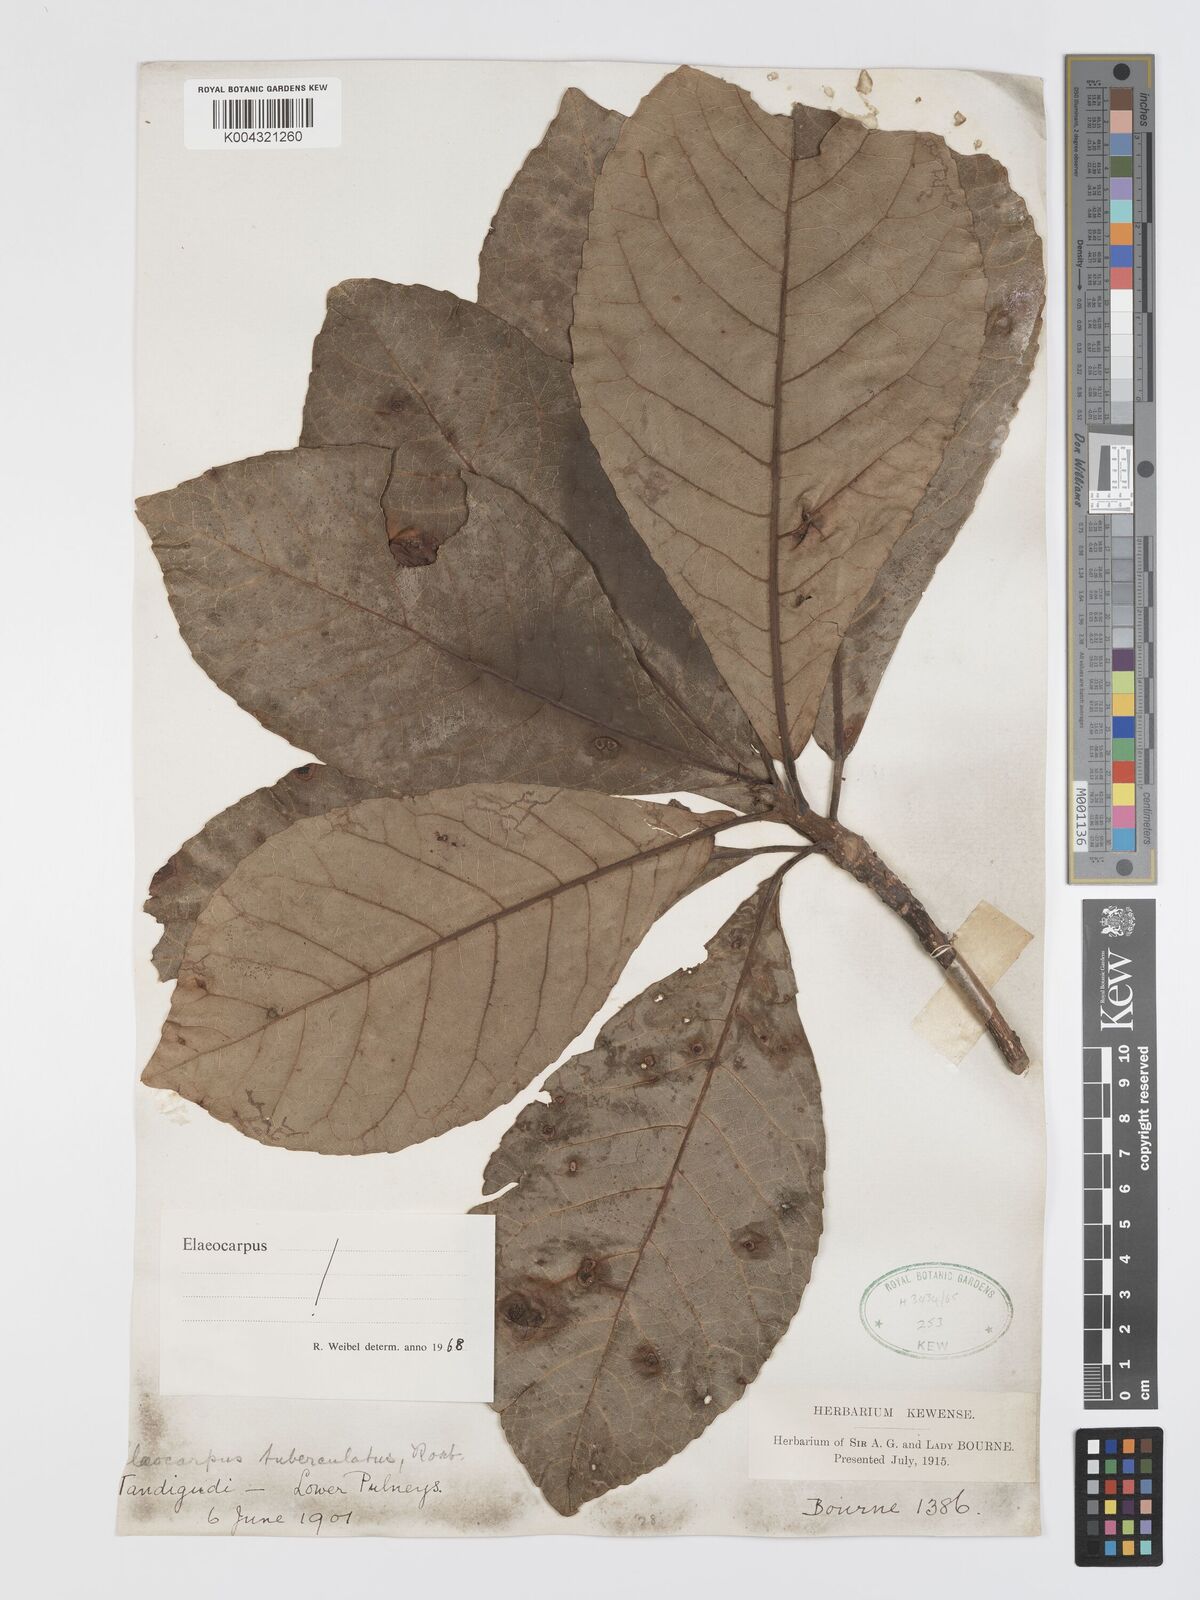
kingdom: Plantae
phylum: Tracheophyta
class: Magnoliopsida
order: Oxalidales
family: Elaeocarpaceae
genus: Elaeocarpus
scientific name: Elaeocarpus tuberculatus
